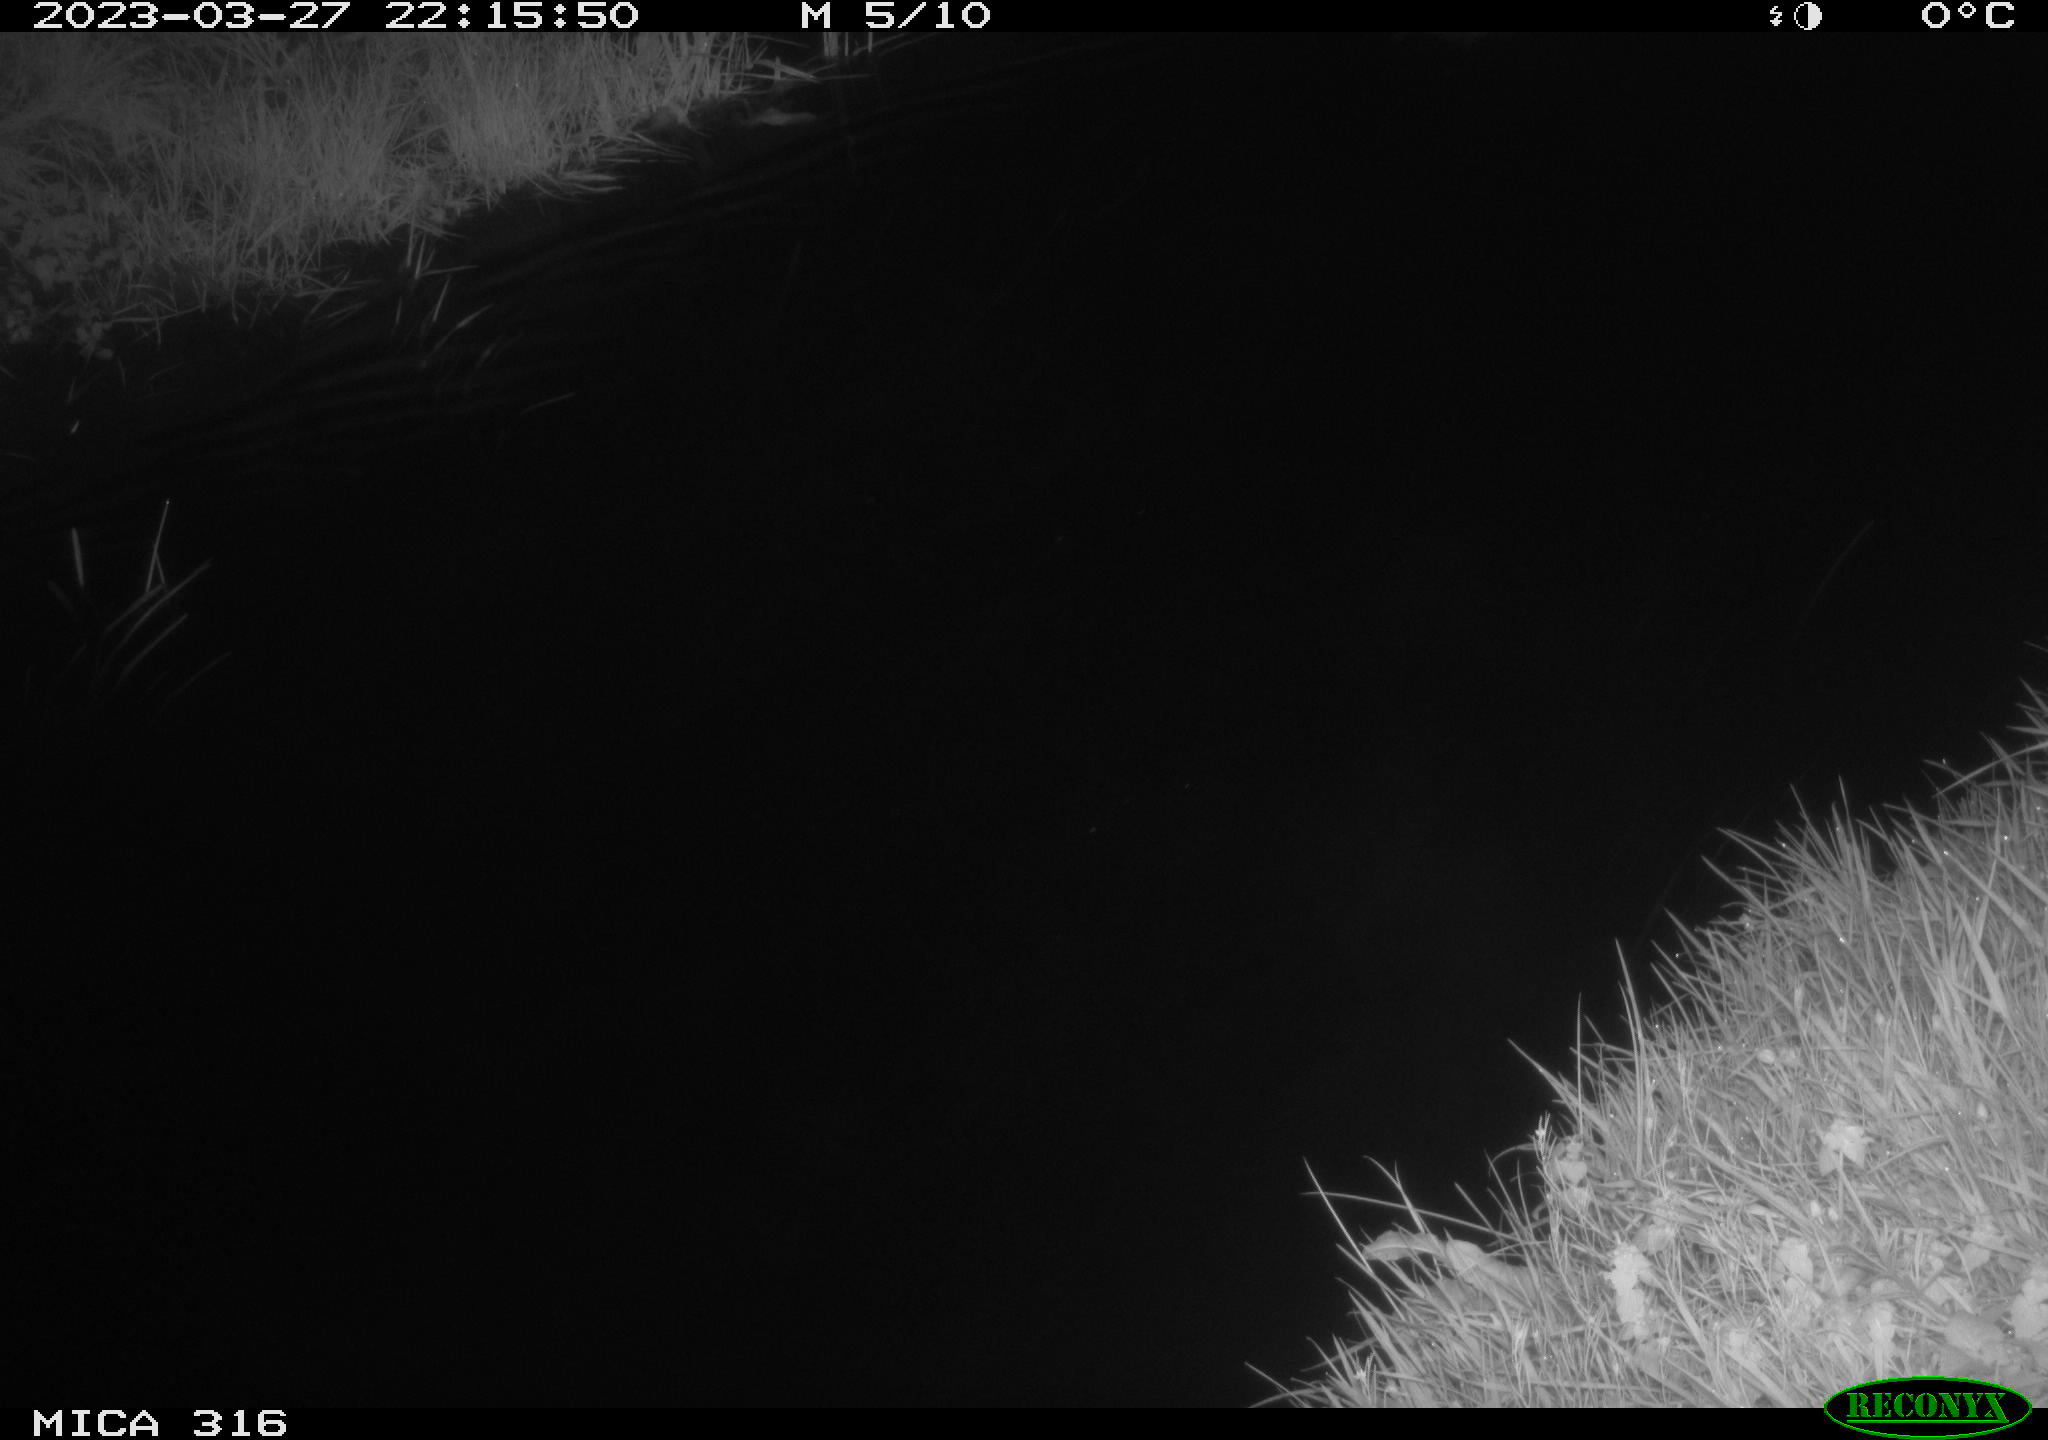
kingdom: Animalia
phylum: Chordata
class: Aves
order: Anseriformes
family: Anatidae
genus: Anas
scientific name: Anas
